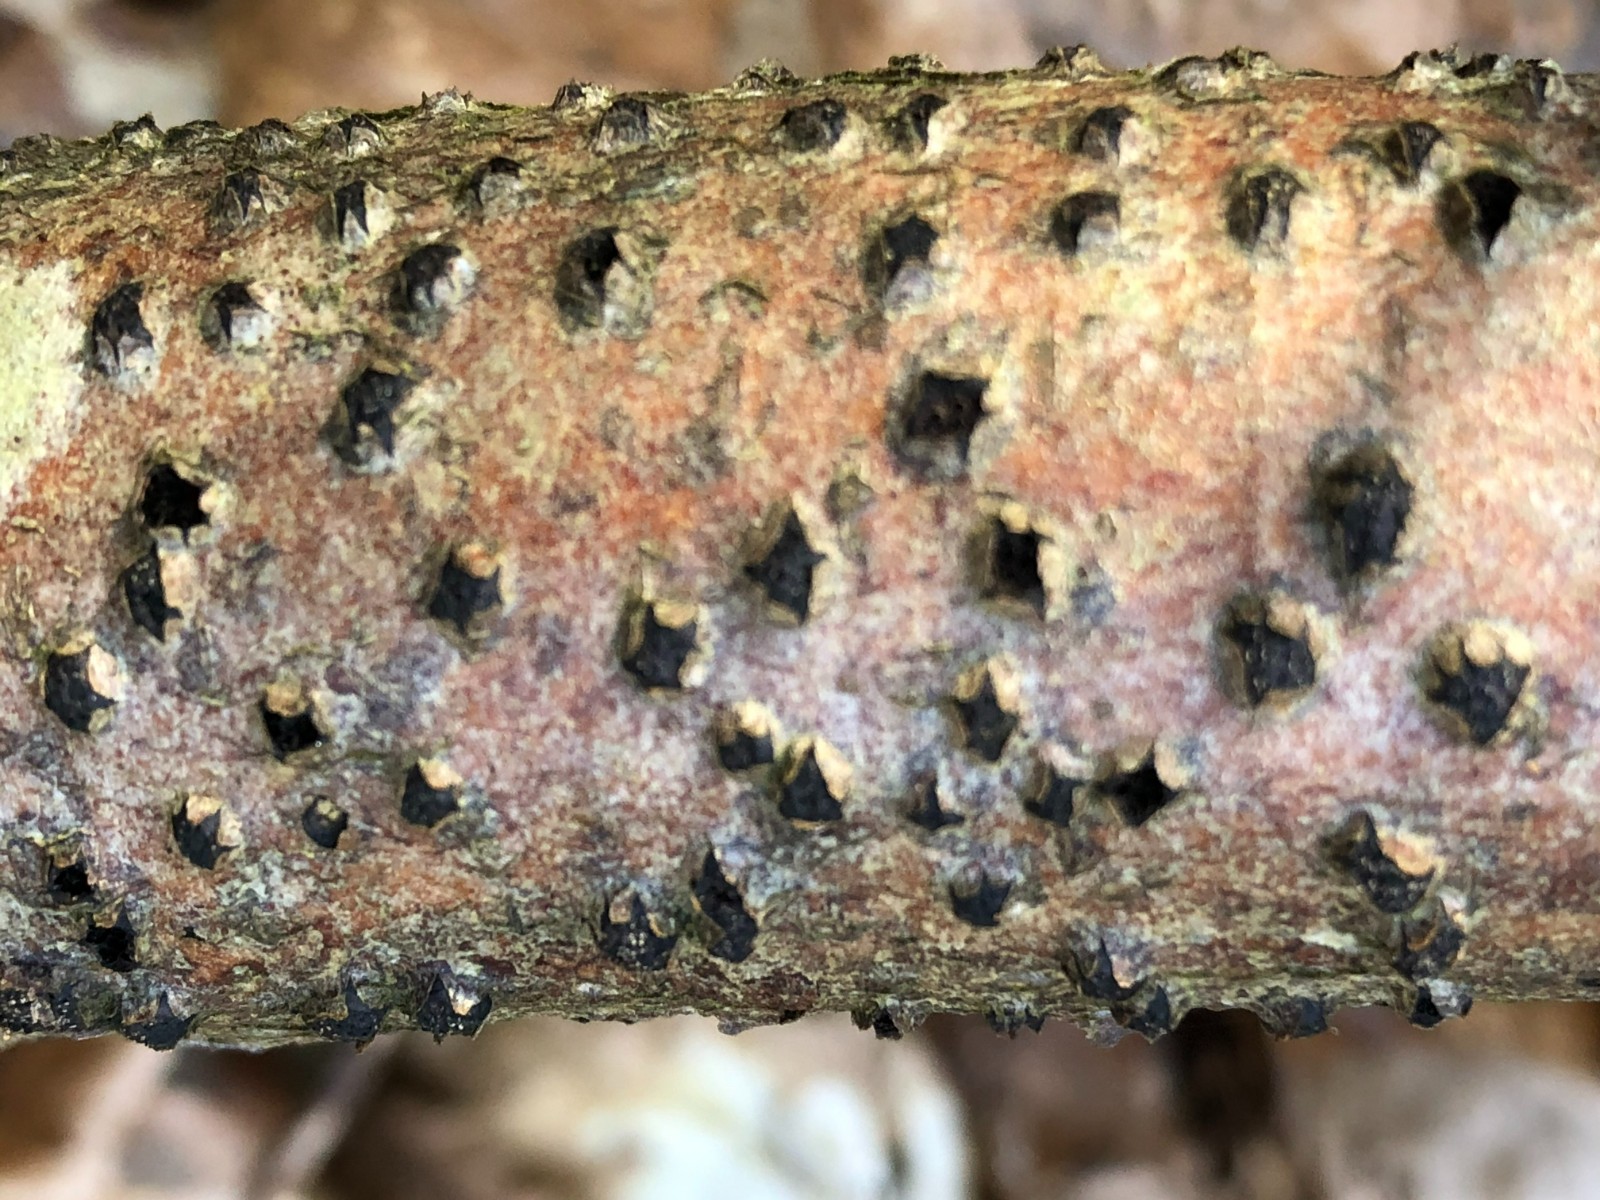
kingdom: Fungi
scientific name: Fungi
